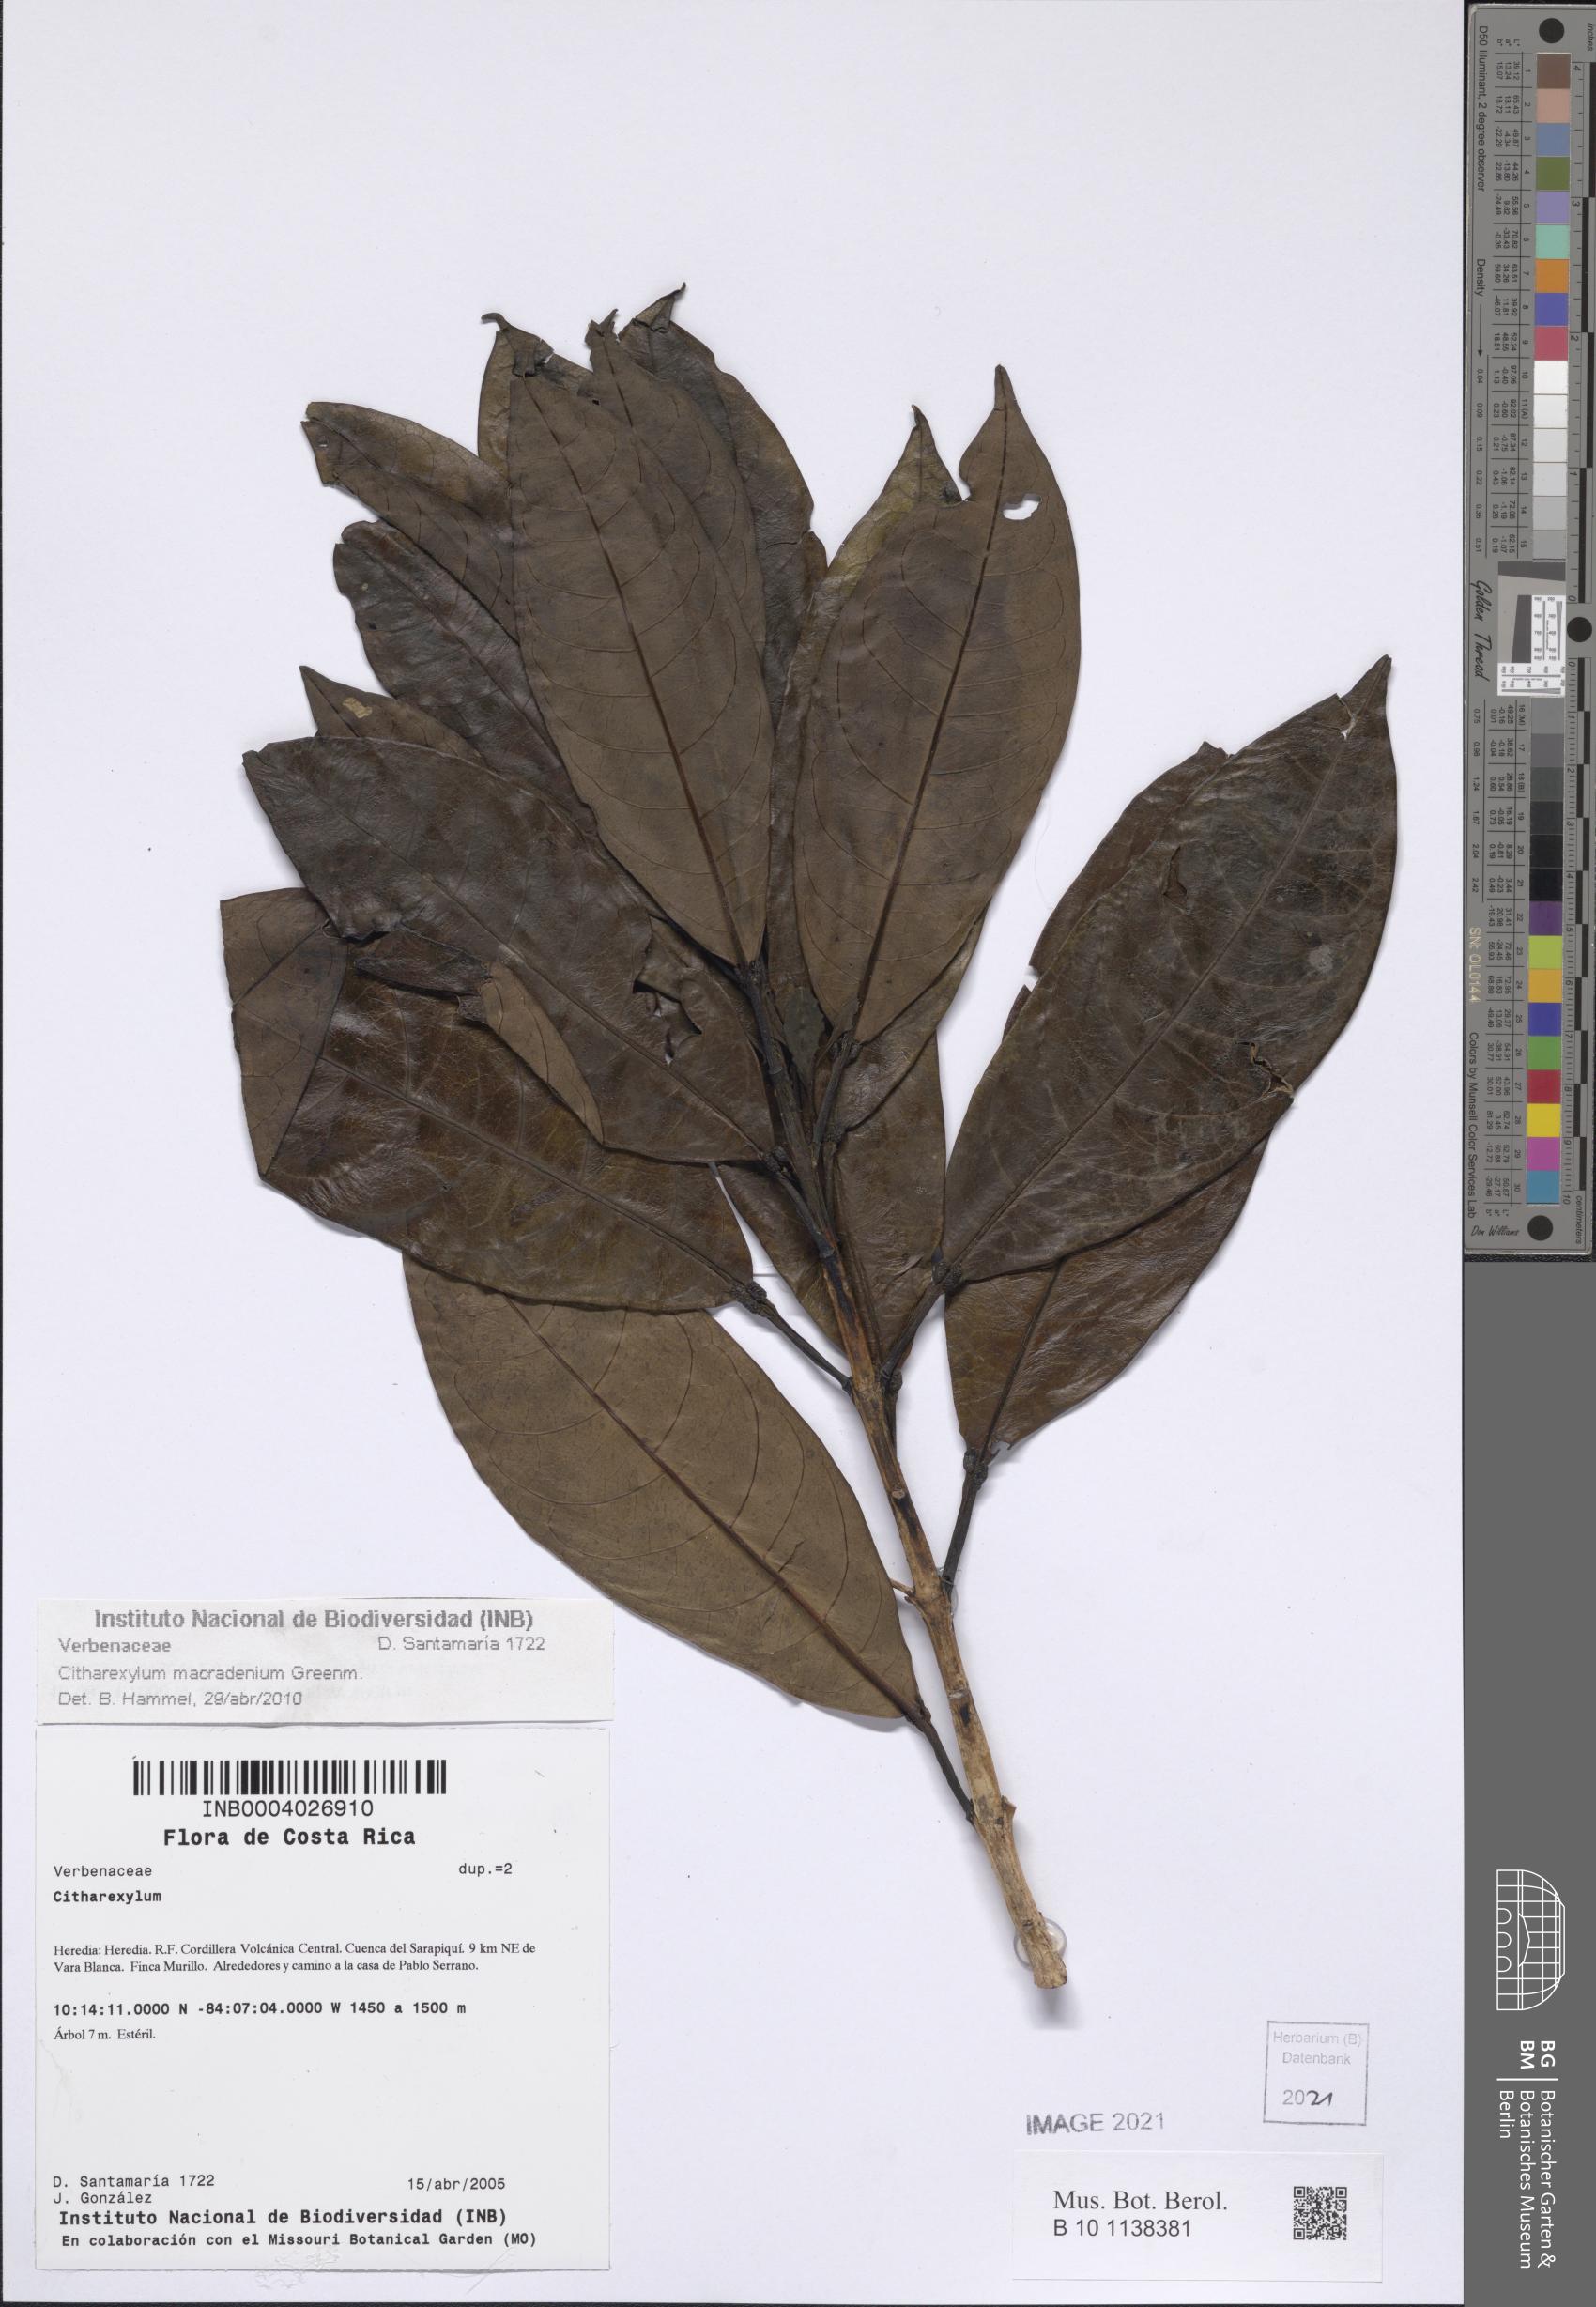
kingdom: Plantae
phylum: Tracheophyta
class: Magnoliopsida
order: Lamiales
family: Verbenaceae
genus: Citharexylum
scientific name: Citharexylum macradenium
